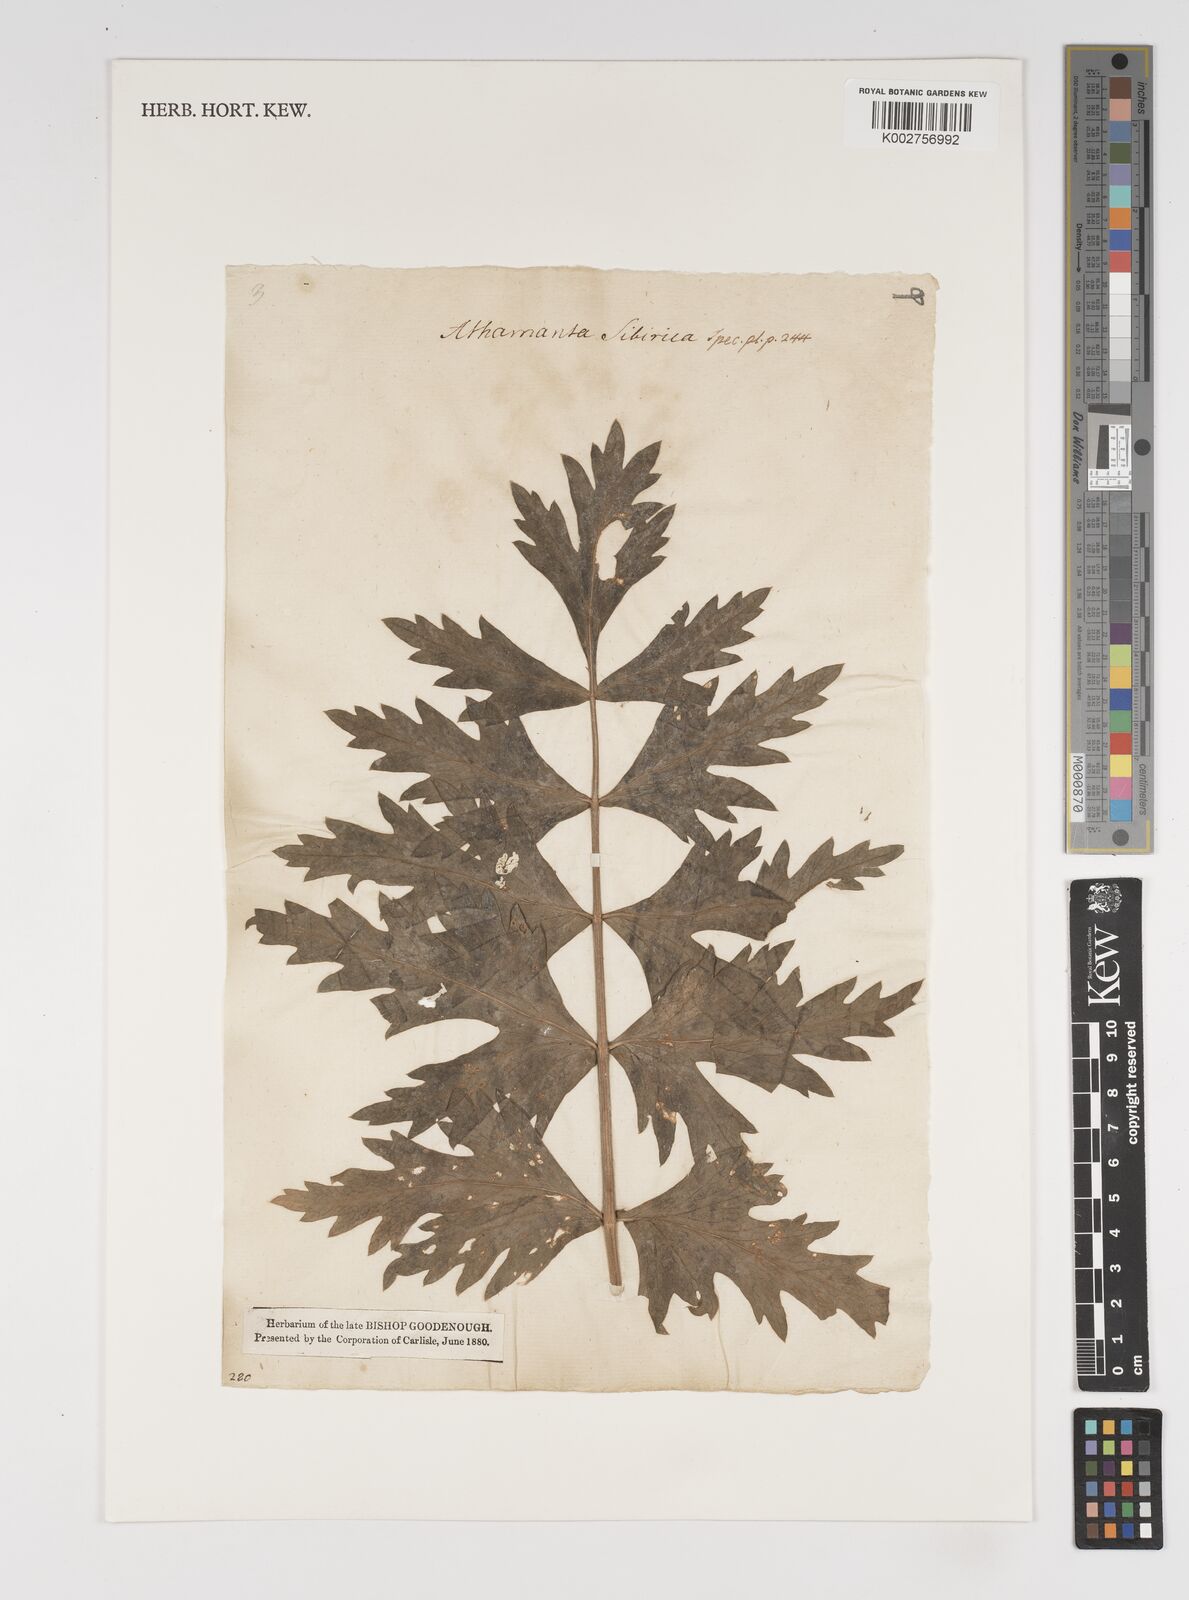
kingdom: Plantae
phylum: Tracheophyta
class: Magnoliopsida
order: Apiales
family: Apiaceae
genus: Seseli
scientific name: Seseli libanotis
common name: Mooncarrot
